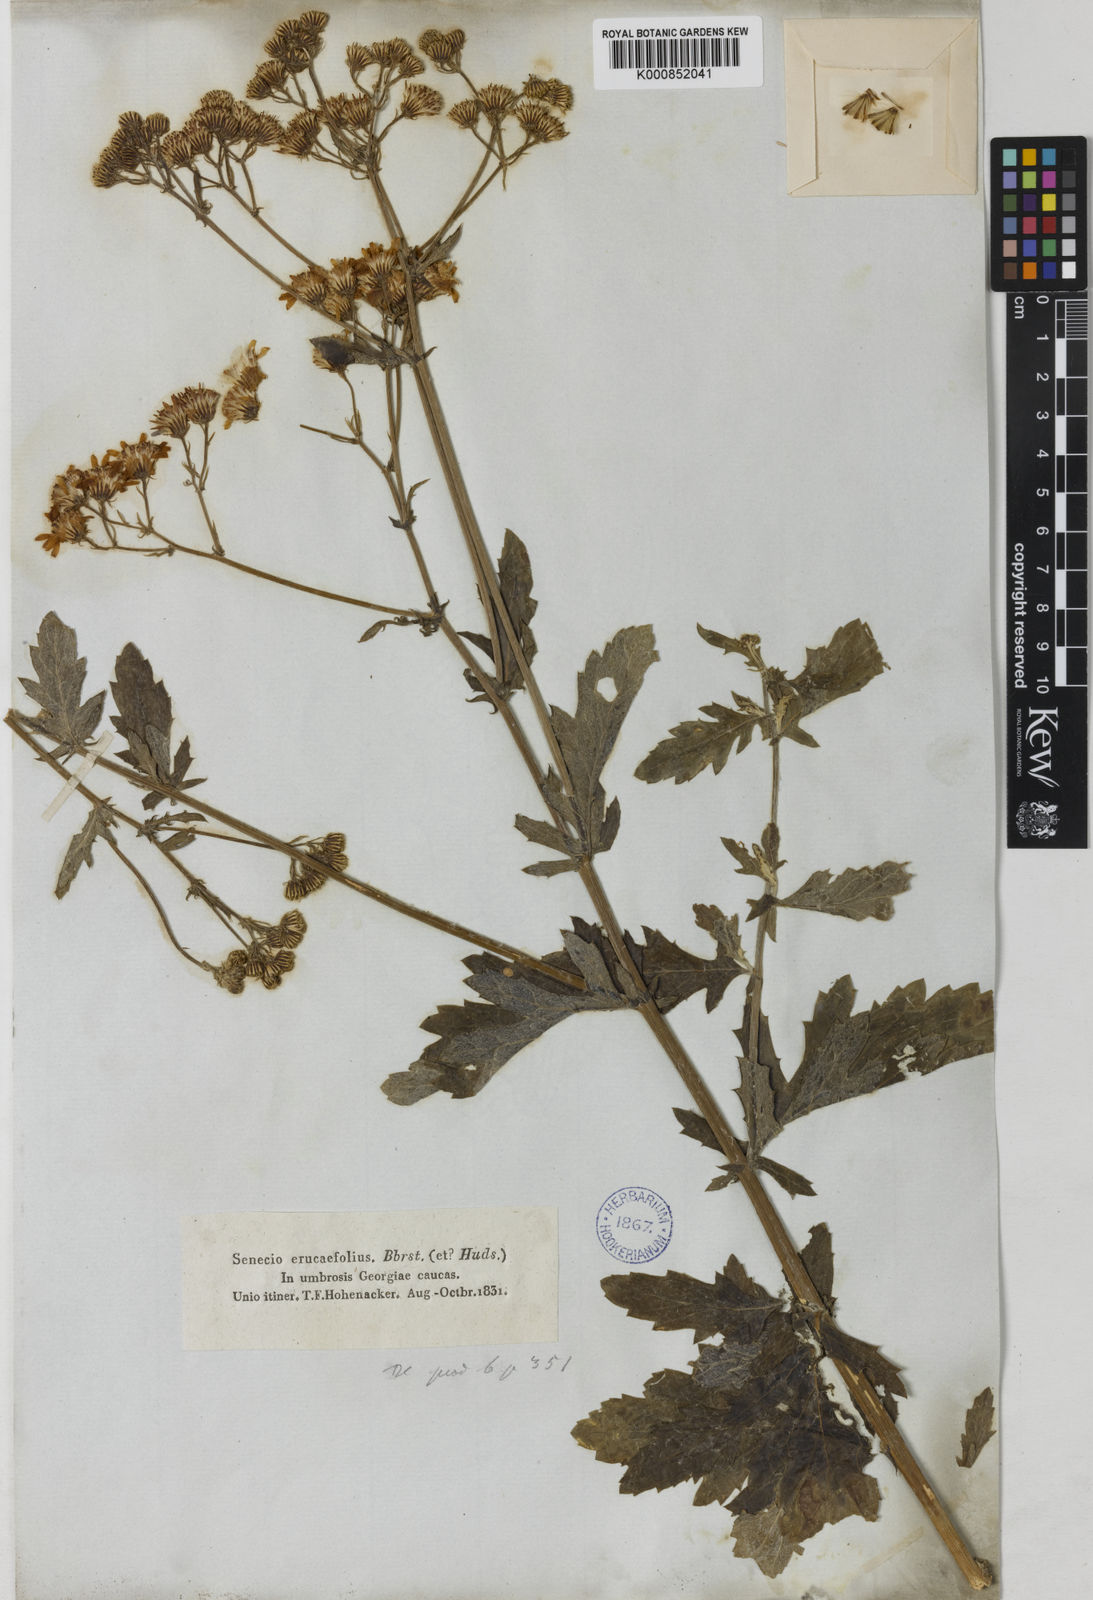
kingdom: Plantae
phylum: Tracheophyta
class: Magnoliopsida
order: Asterales
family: Asteraceae
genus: Jacobaea
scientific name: Jacobaea erucifolia
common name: Hoary ragwort
